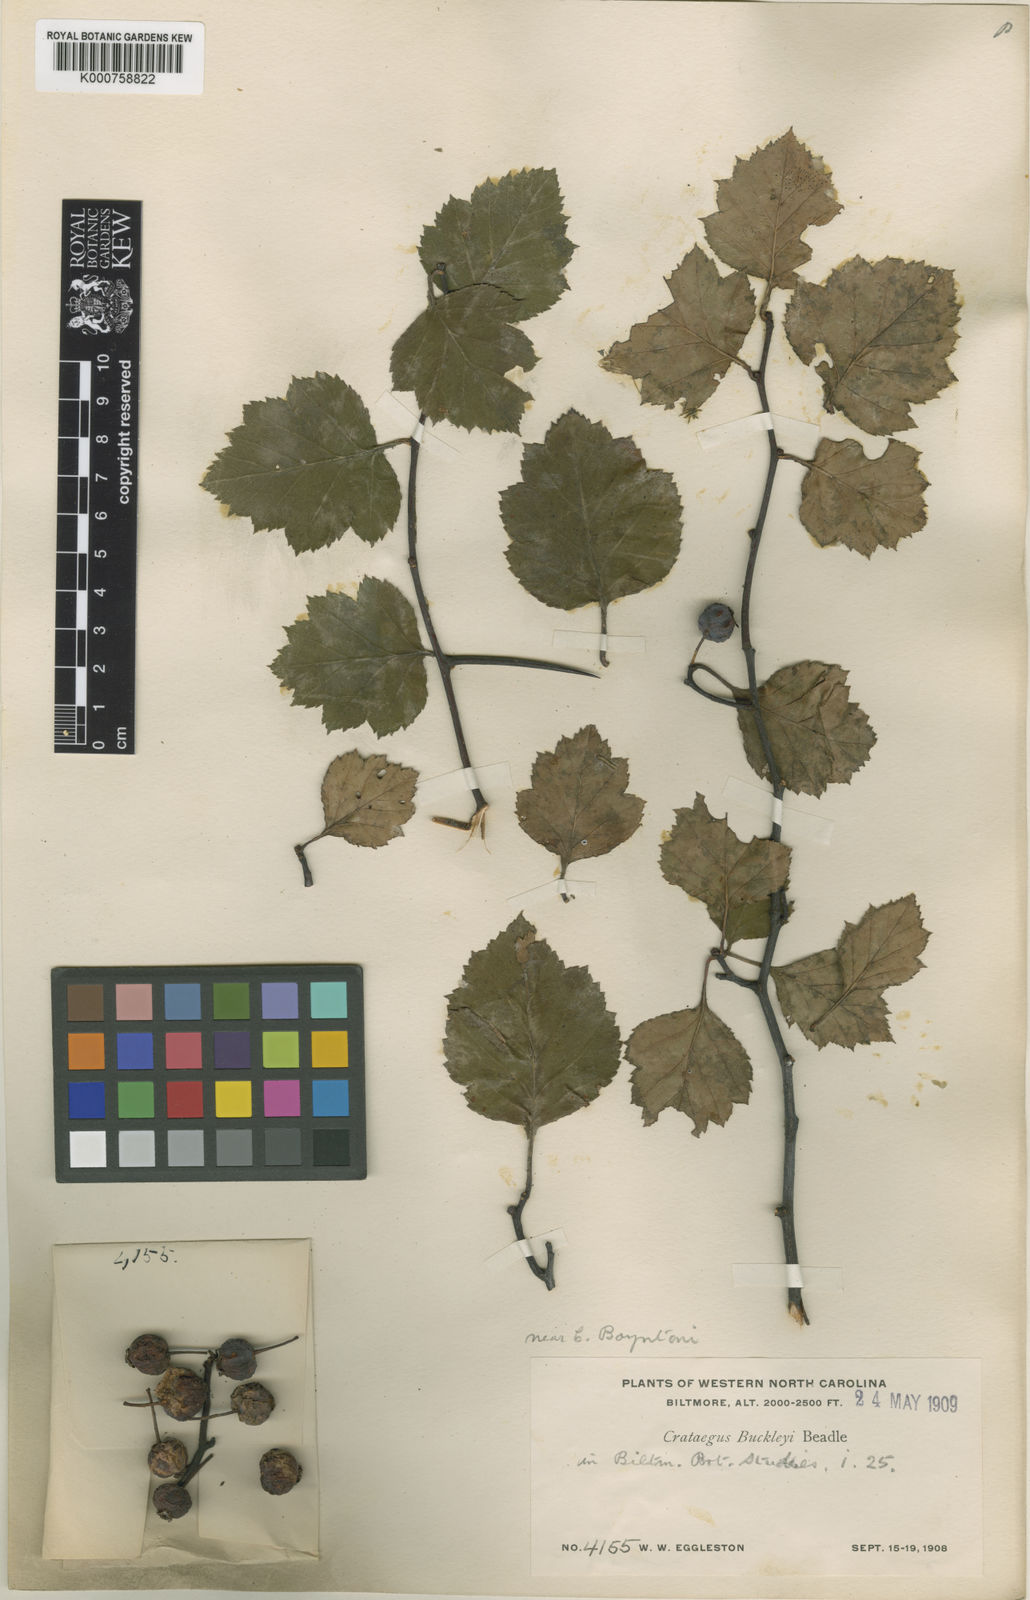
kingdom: Plantae
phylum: Tracheophyta
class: Magnoliopsida
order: Rosales
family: Rosaceae
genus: Crataegus
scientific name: Crataegus intricata
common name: Biltmore hawthorn
